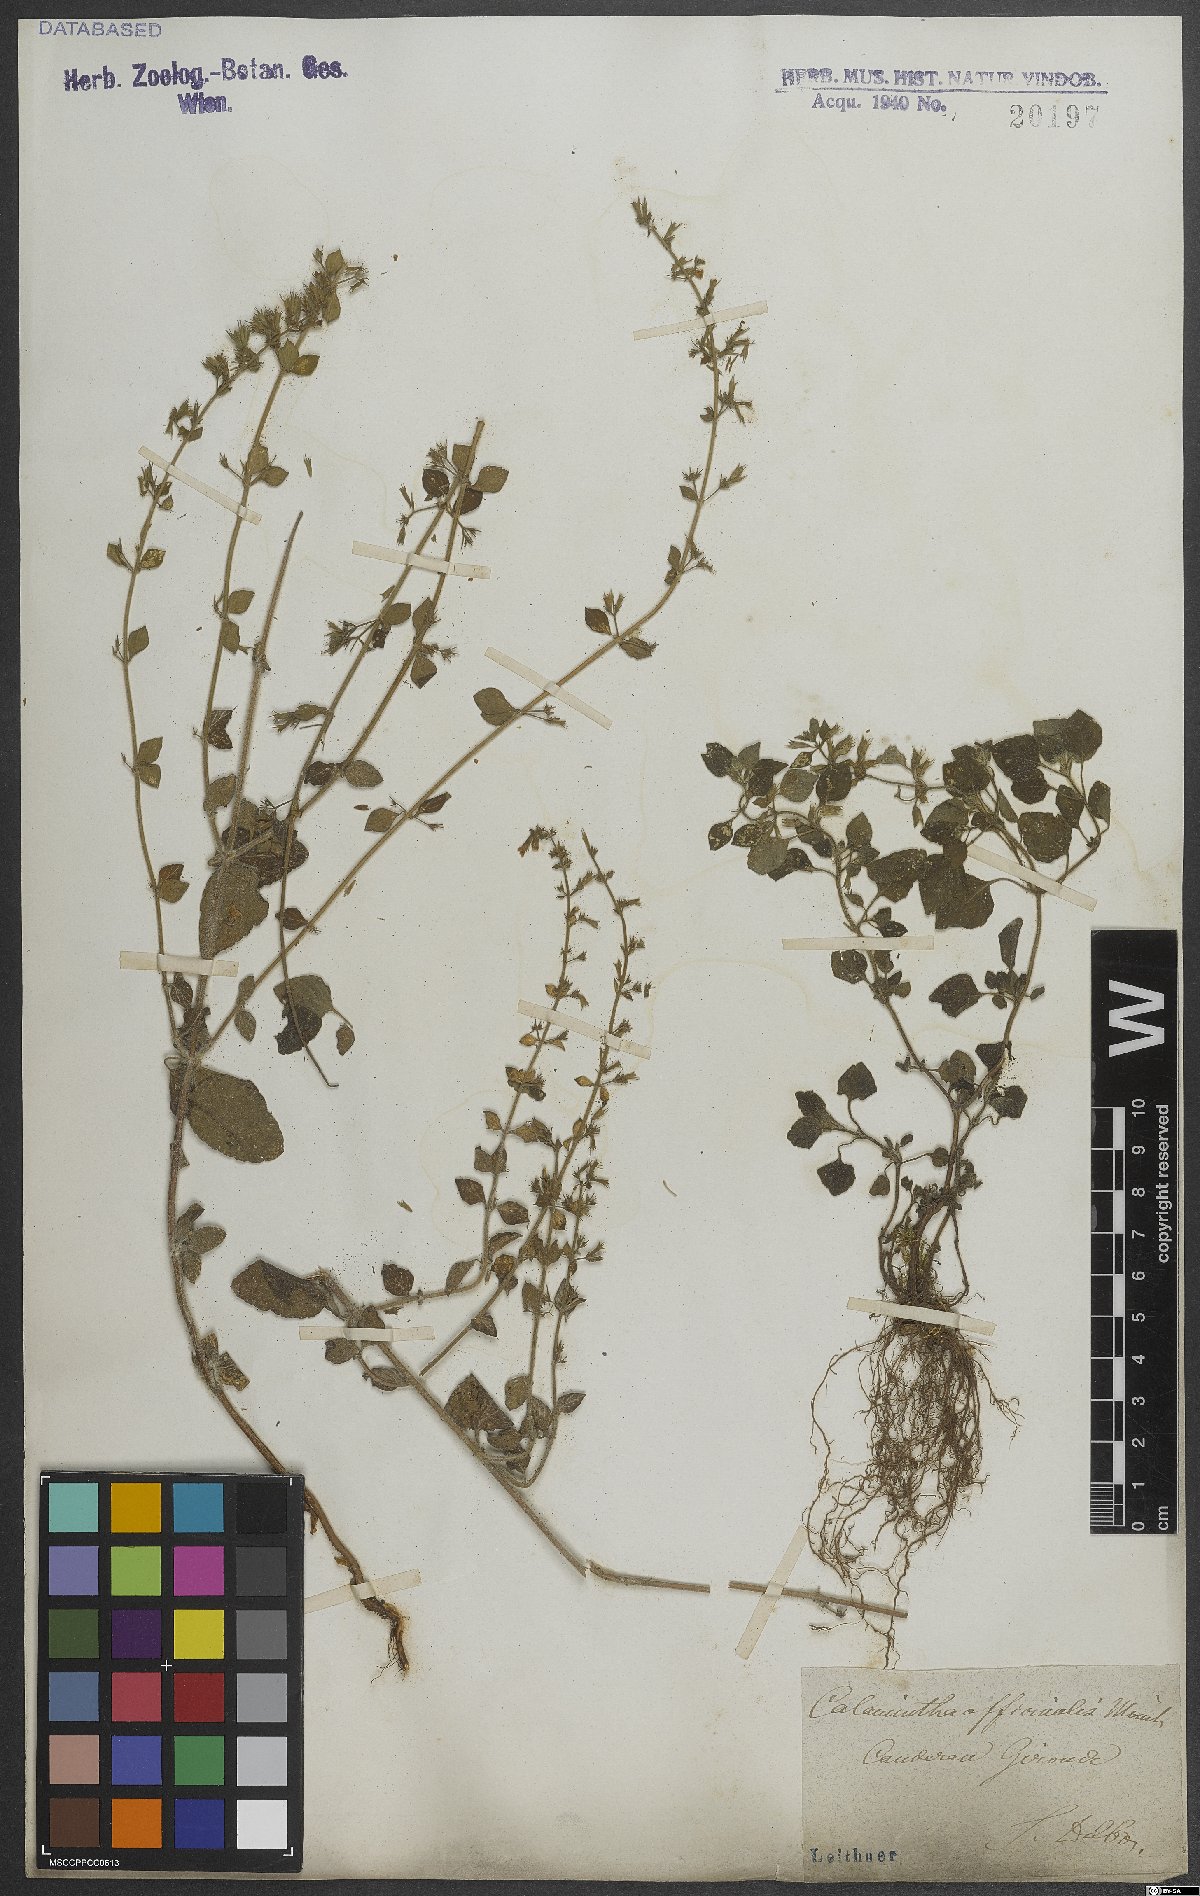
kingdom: Plantae
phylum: Tracheophyta
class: Magnoliopsida
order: Lamiales
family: Lamiaceae
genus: Clinopodium
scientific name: Clinopodium nepeta
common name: Lesser calamint
